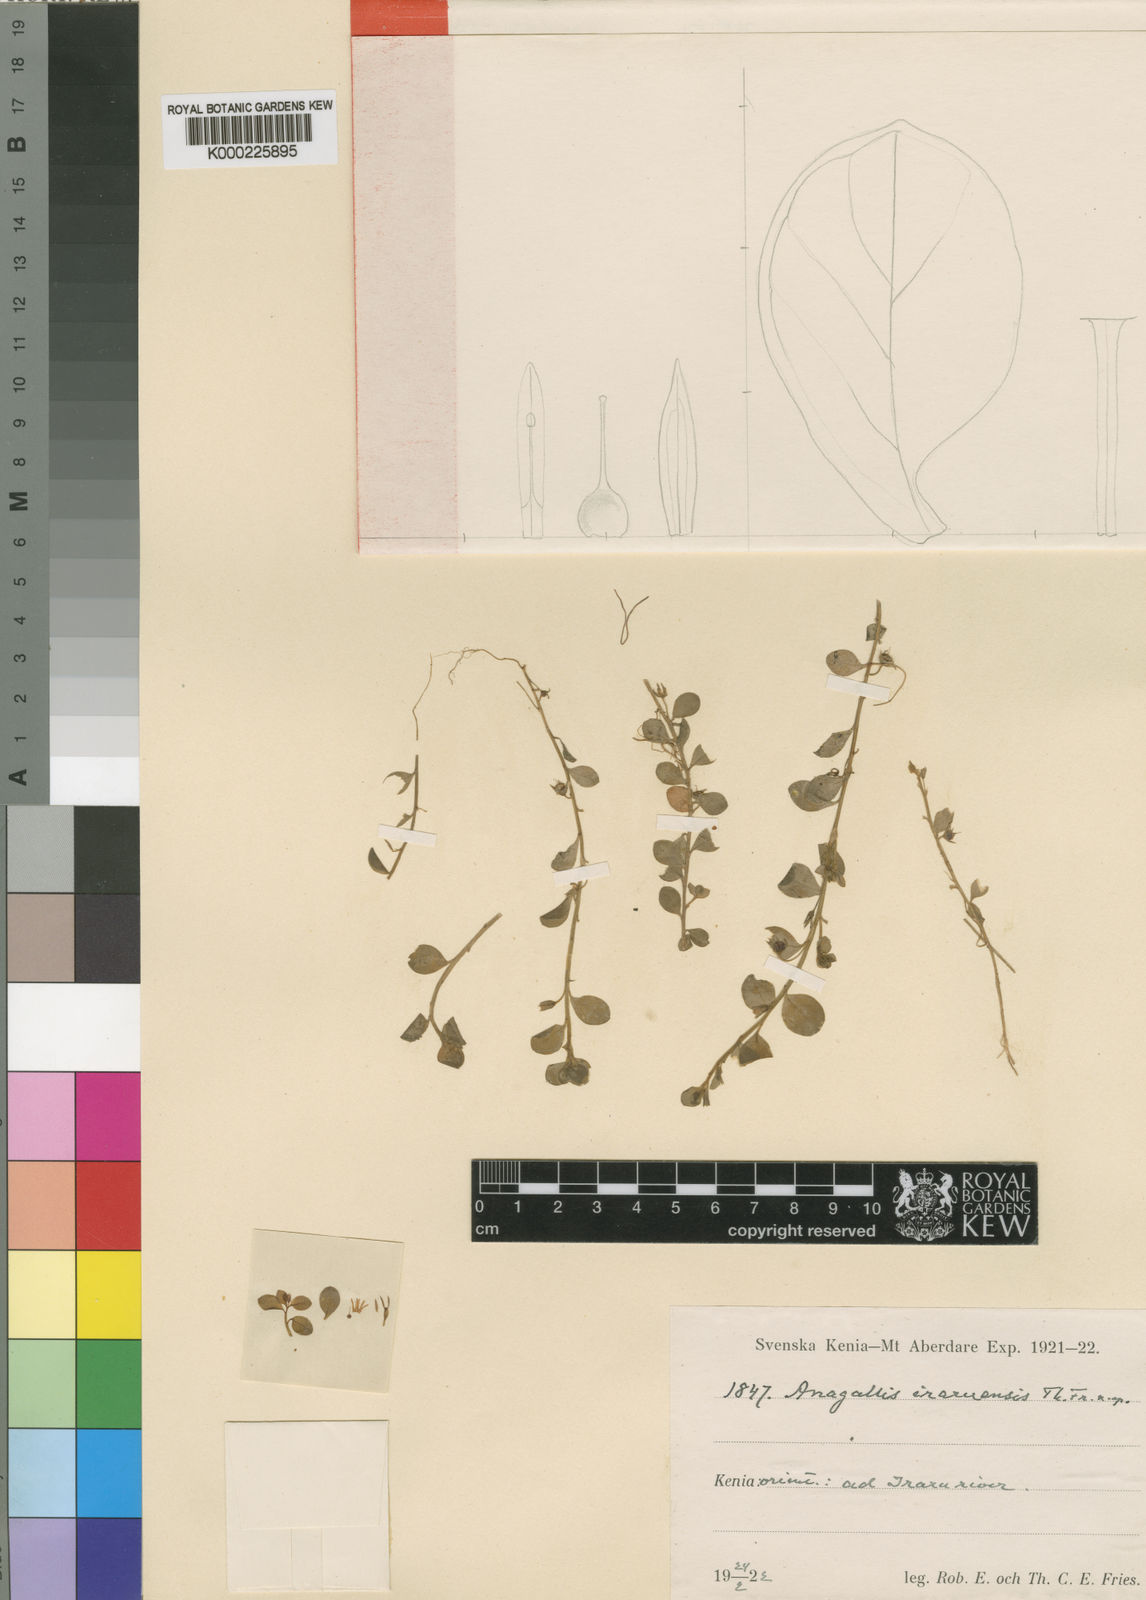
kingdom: Plantae
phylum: Tracheophyta
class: Magnoliopsida
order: Ericales
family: Primulaceae
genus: Lysimachia
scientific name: Lysimachia Anagallis spec
